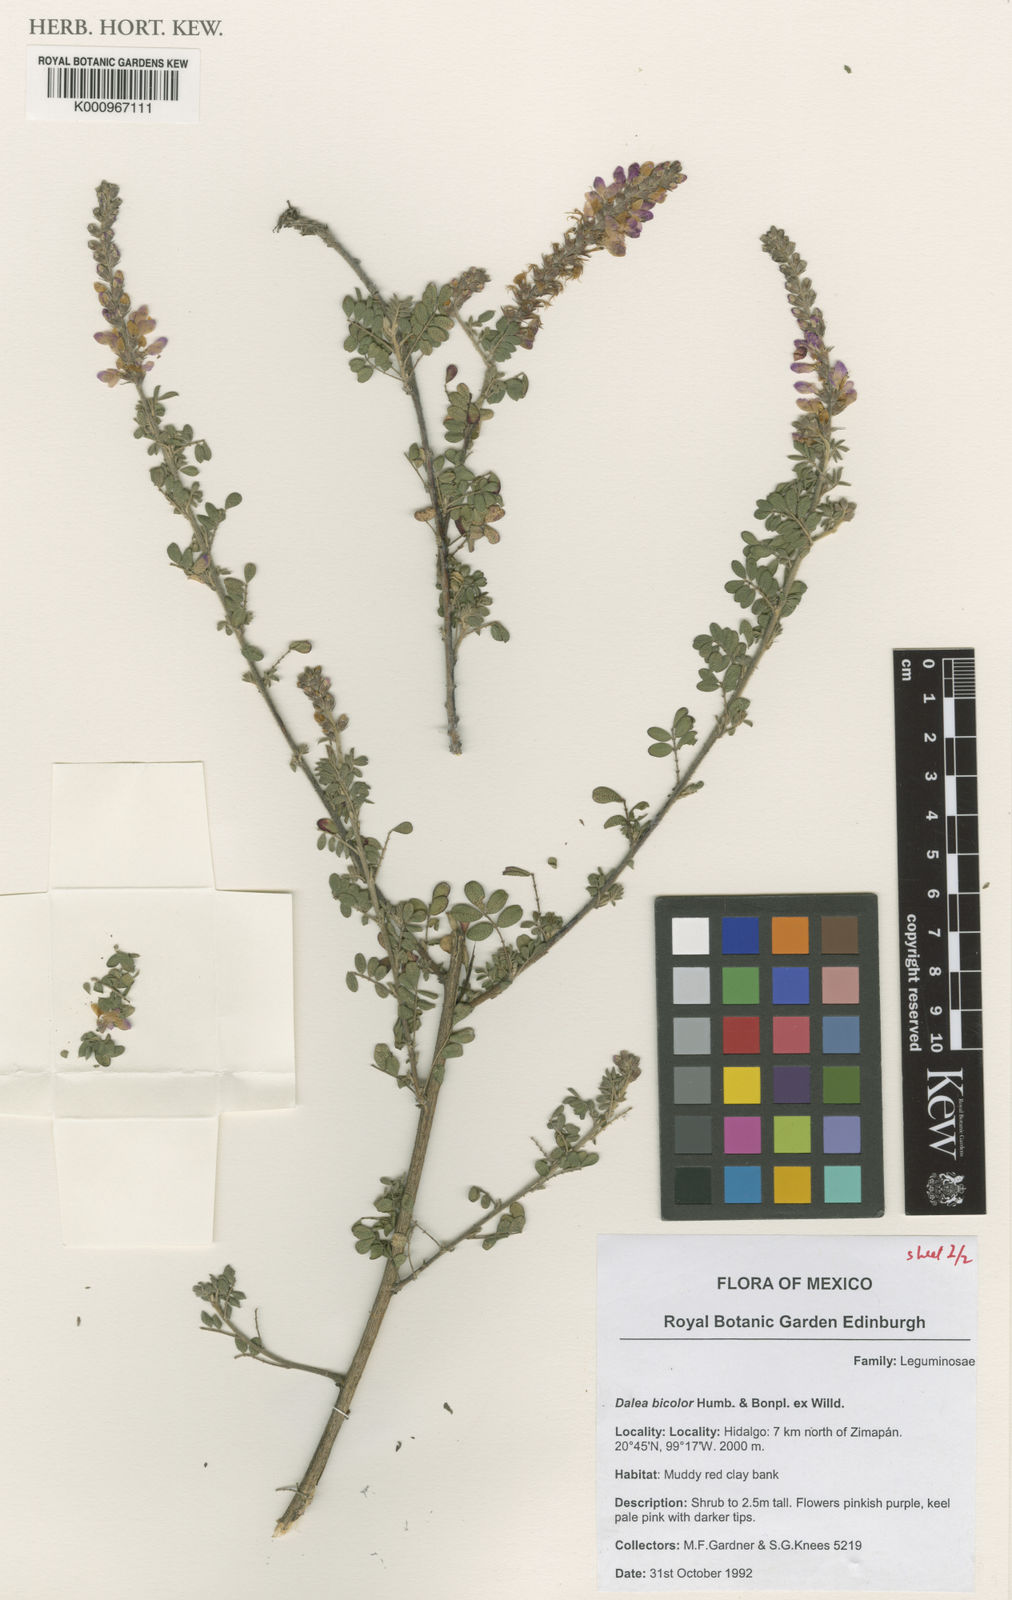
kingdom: Plantae
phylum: Tracheophyta
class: Magnoliopsida
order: Fabales
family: Fabaceae
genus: Dalea
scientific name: Dalea
